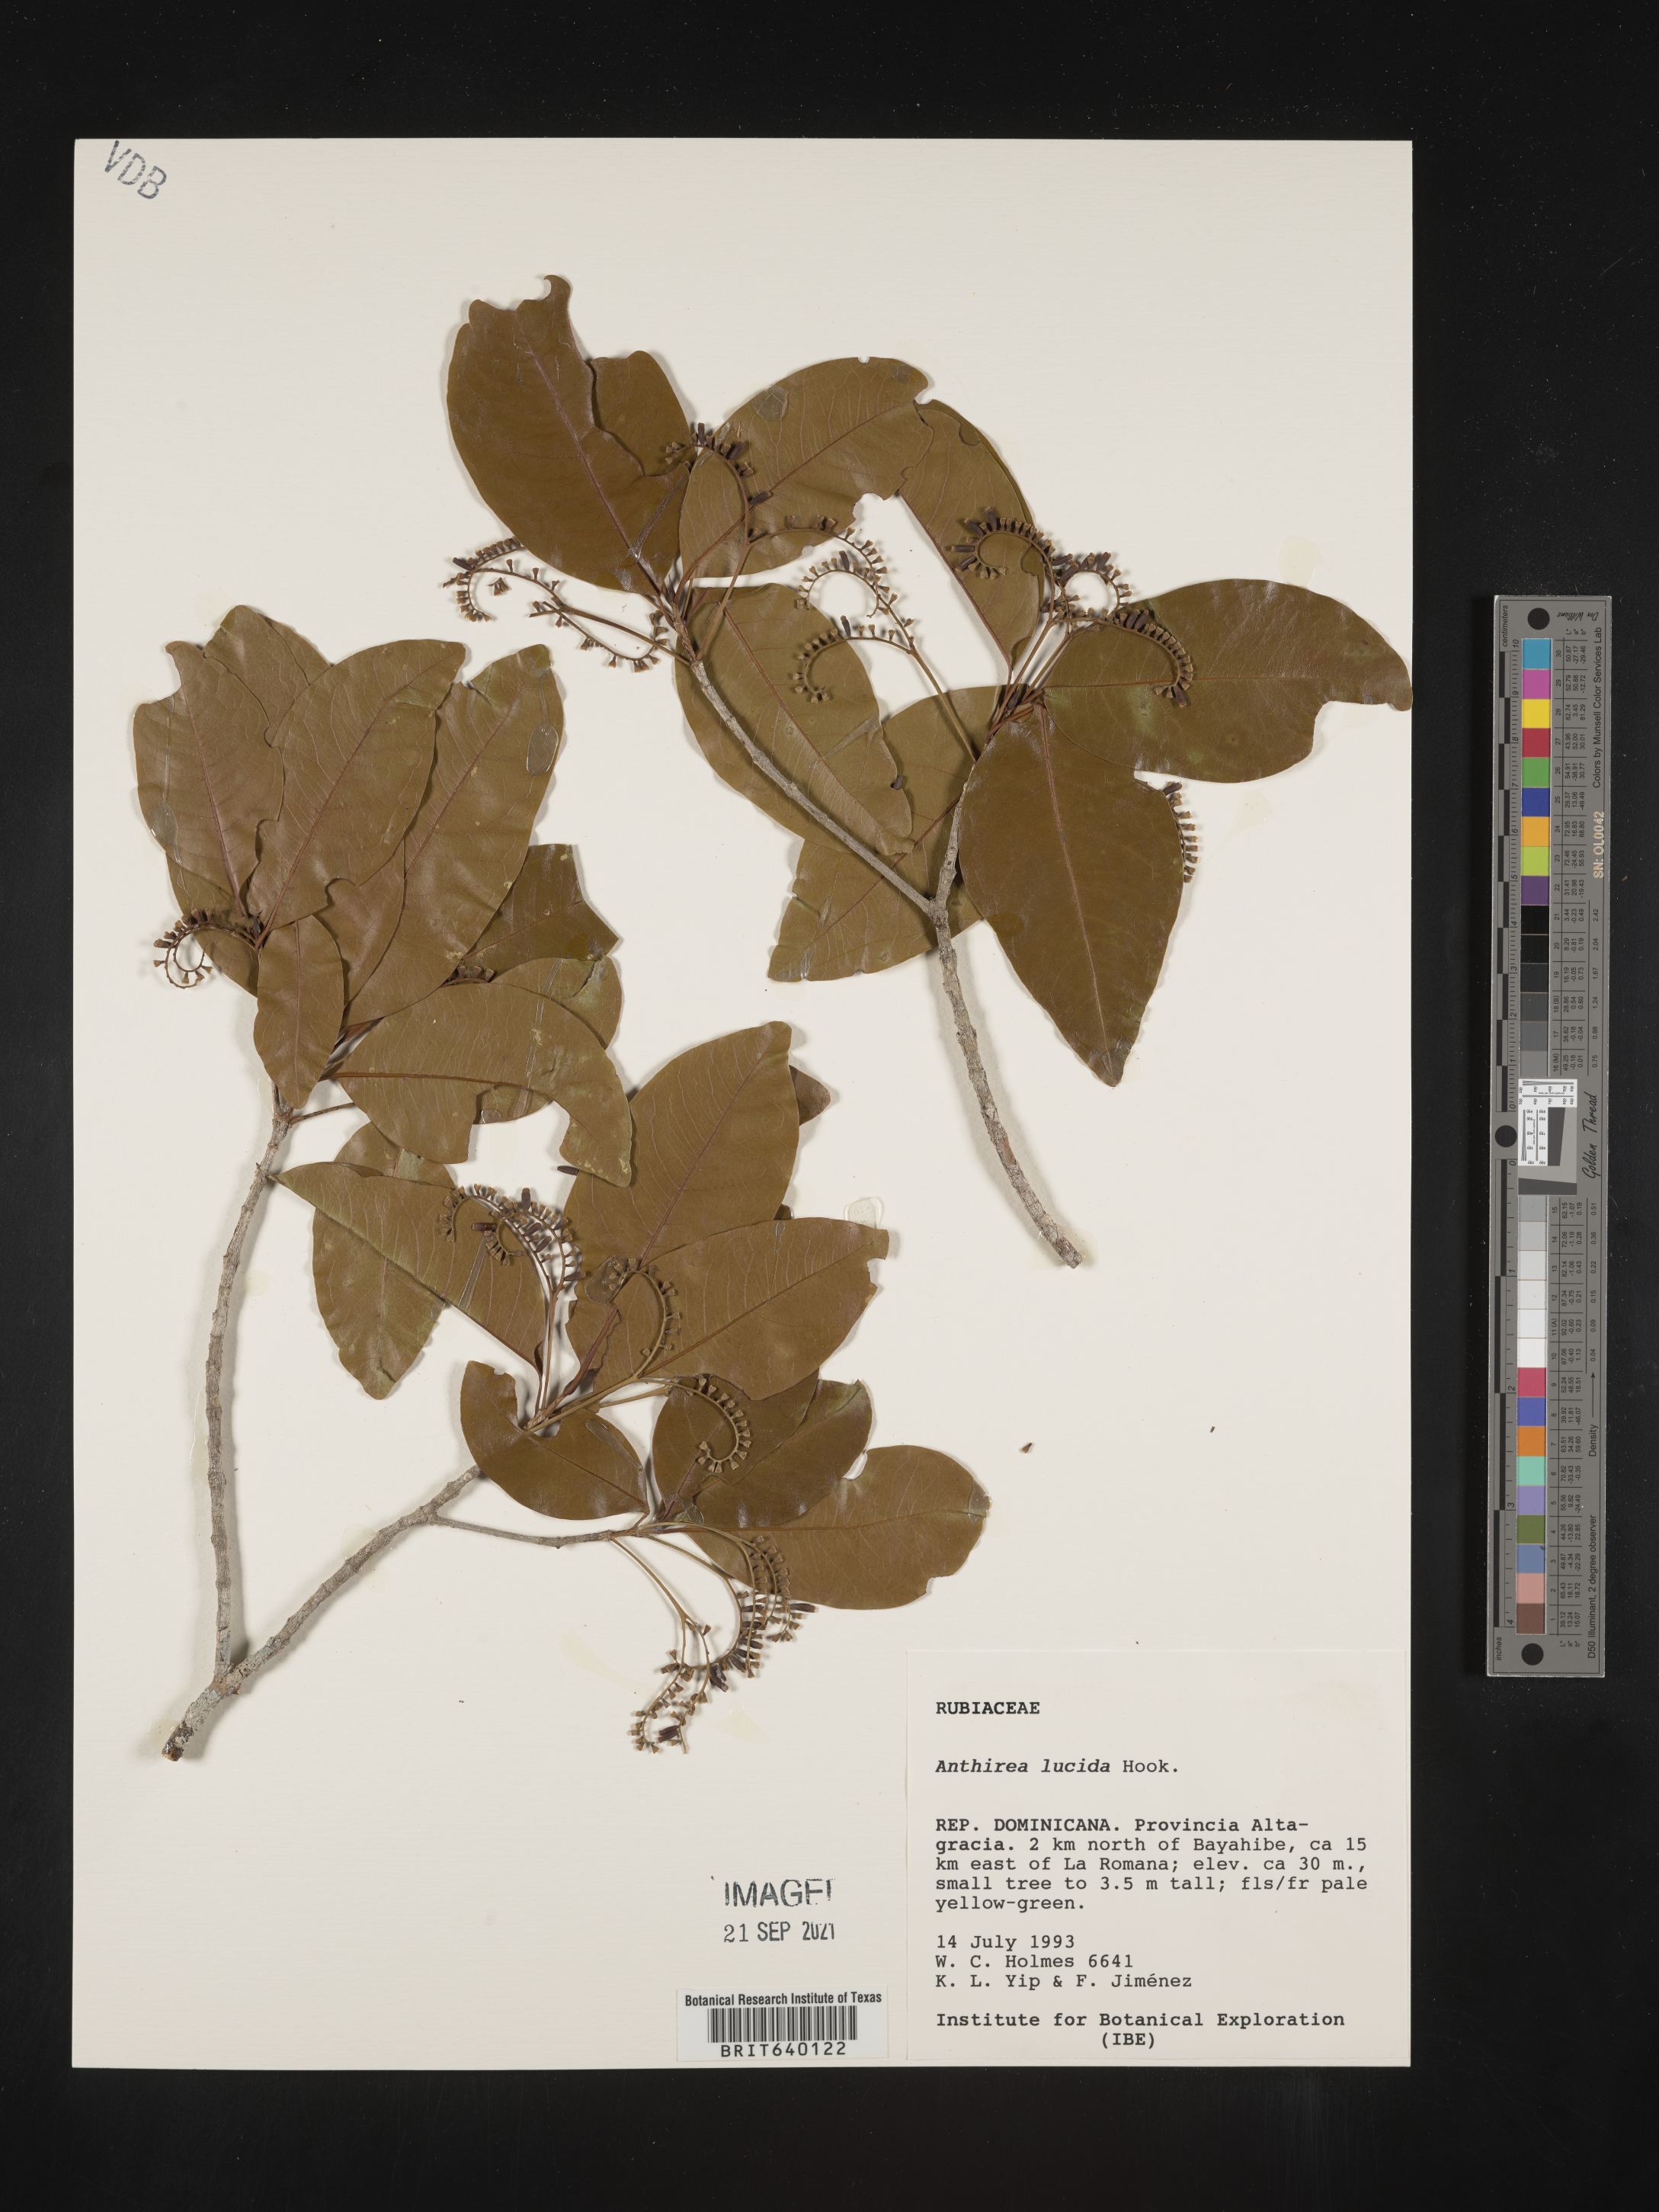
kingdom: Plantae
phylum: Tracheophyta
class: Magnoliopsida
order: Gentianales
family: Rubiaceae
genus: Antirhea
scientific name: Antirhea
